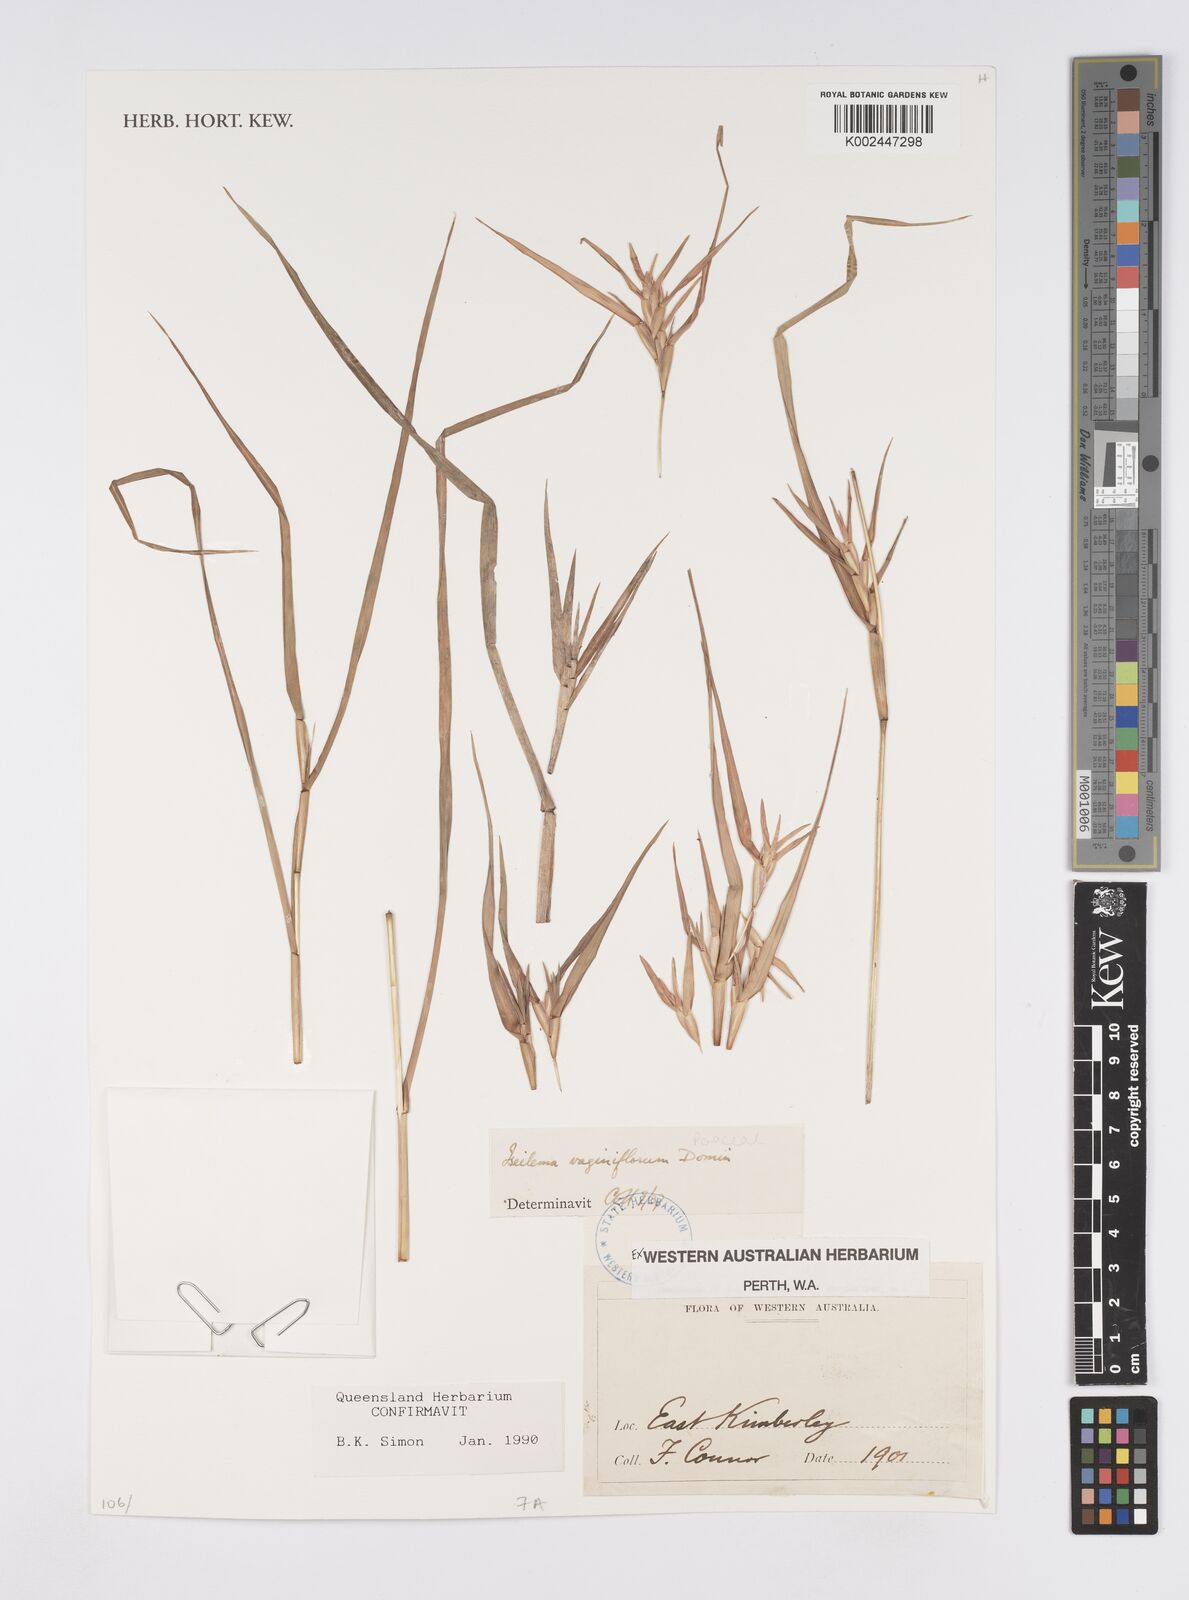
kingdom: Plantae
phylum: Tracheophyta
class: Liliopsida
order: Poales
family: Poaceae
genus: Iseilema
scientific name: Iseilema vaginiflorum
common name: Red flinders grass
